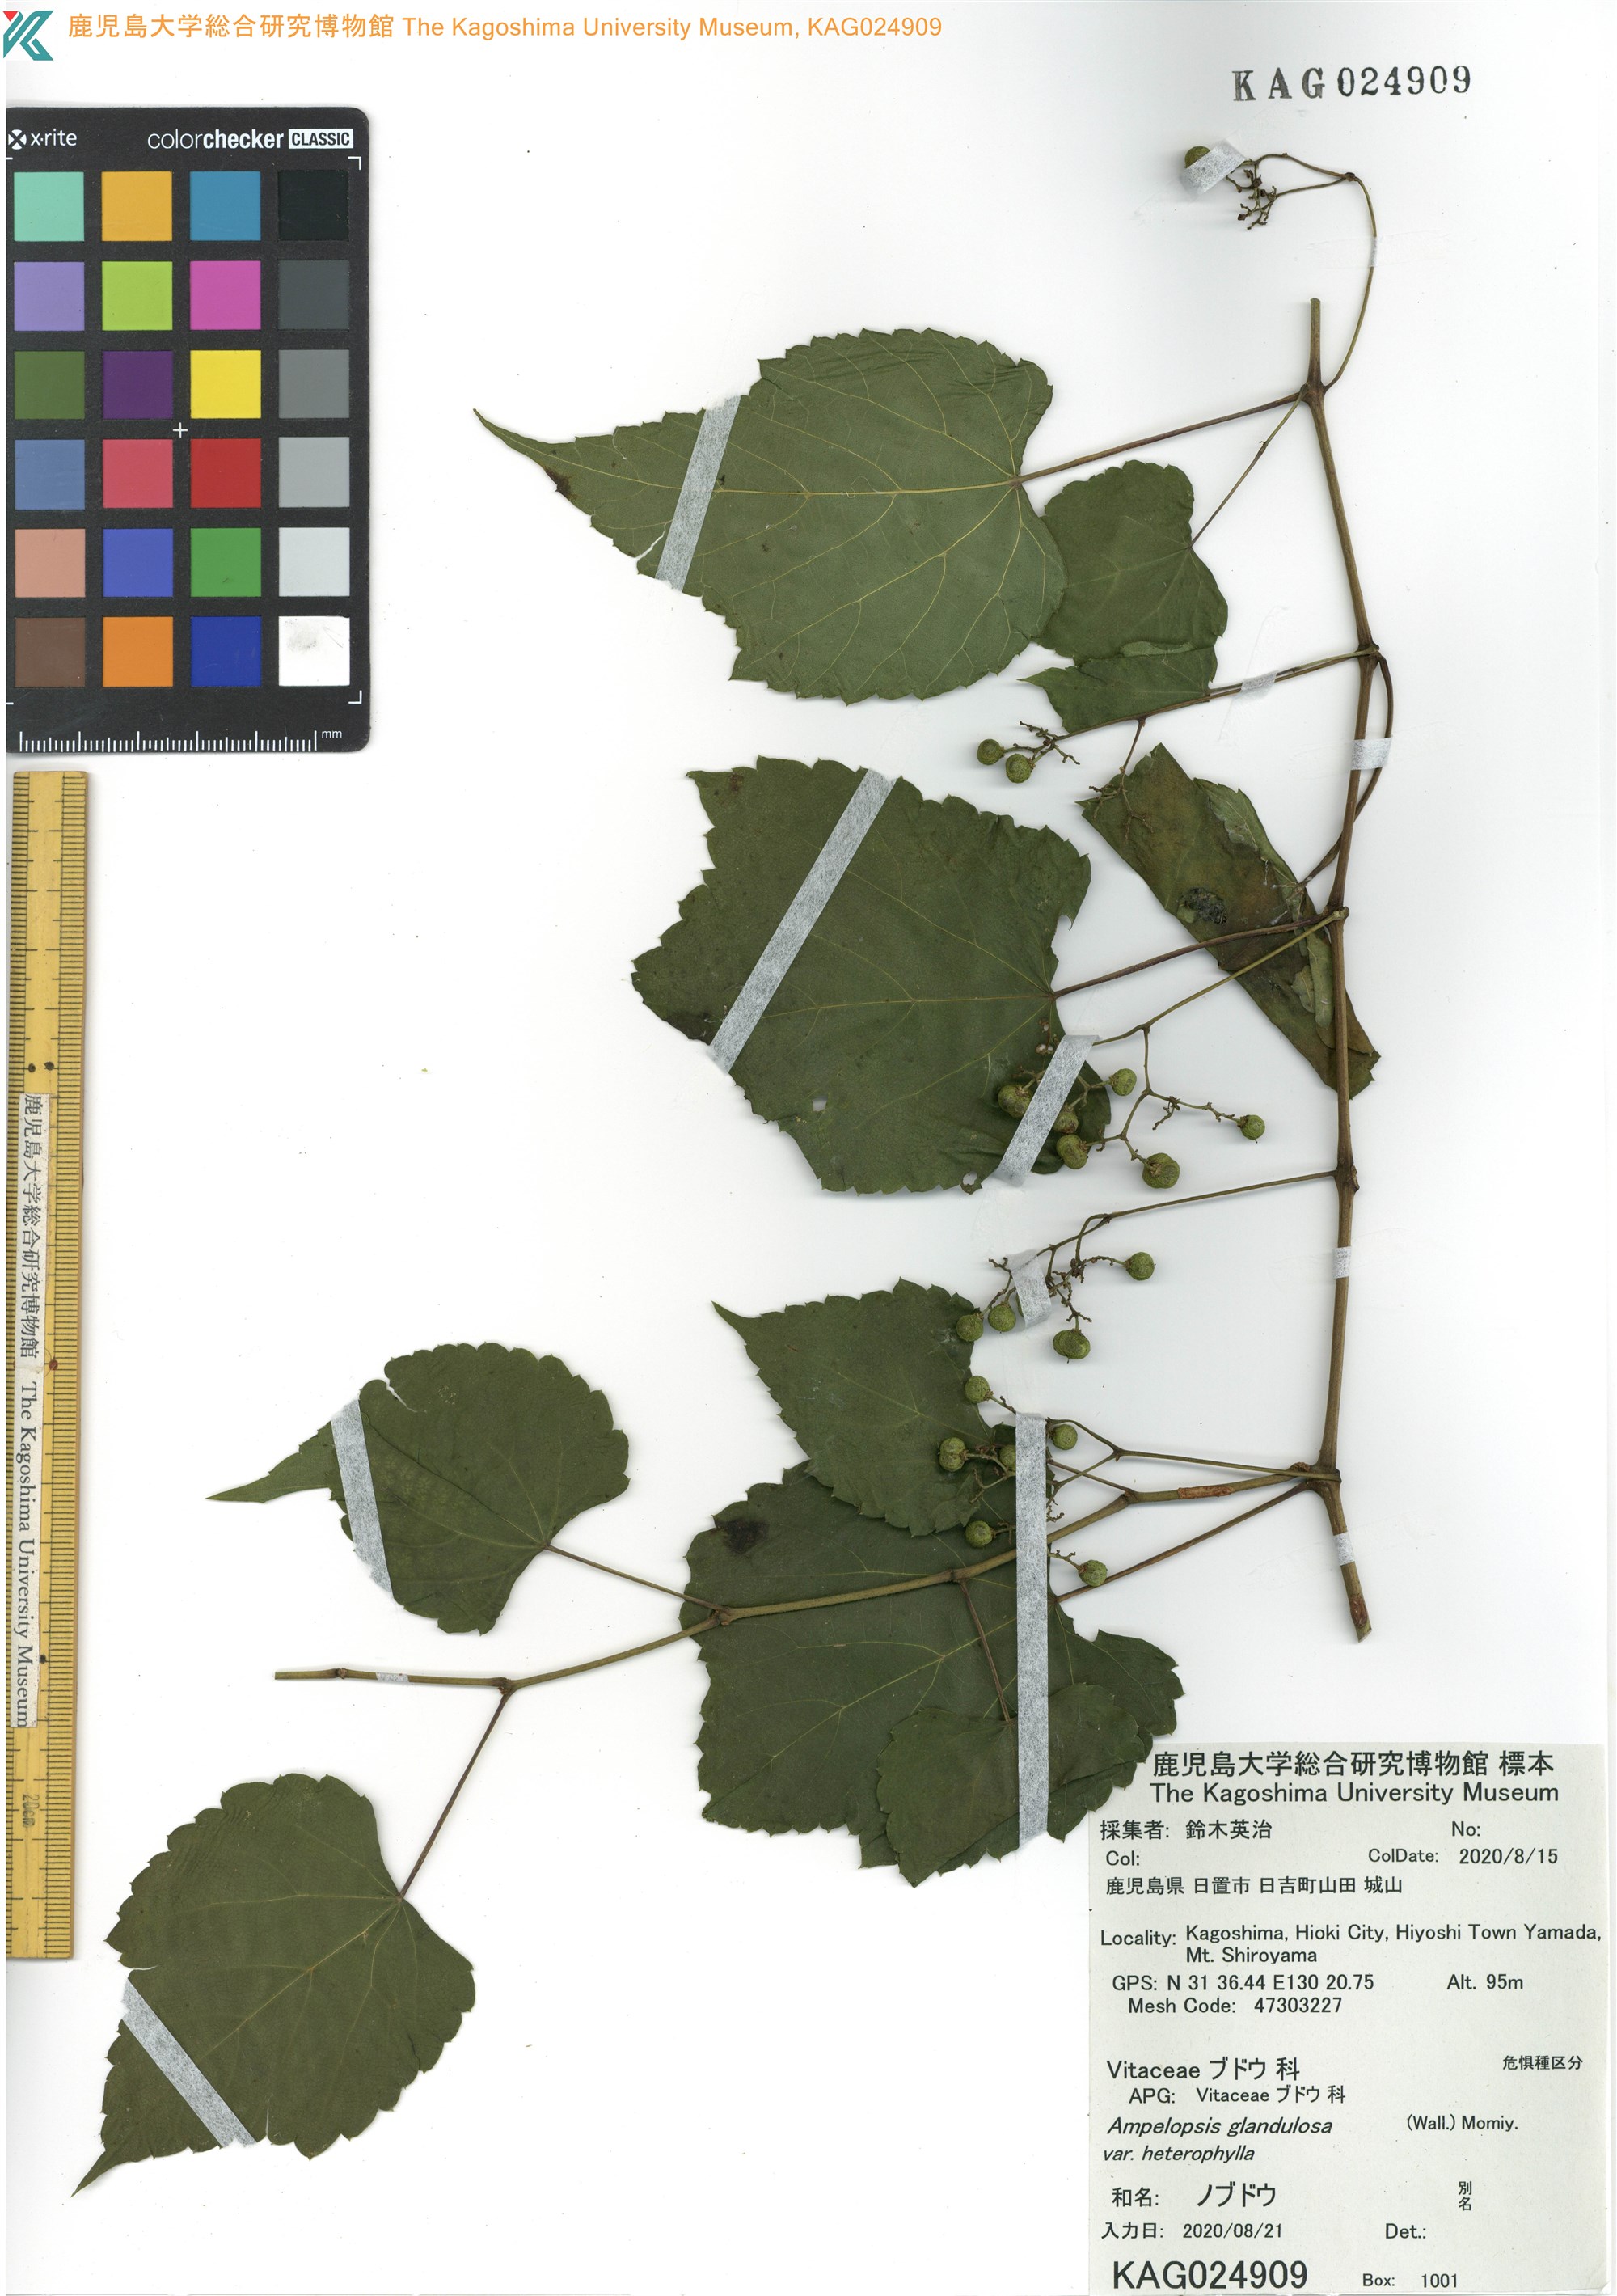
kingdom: Plantae
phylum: Tracheophyta
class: Magnoliopsida
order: Vitales
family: Vitaceae
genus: Ampelopsis
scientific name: Ampelopsis glandulosa
